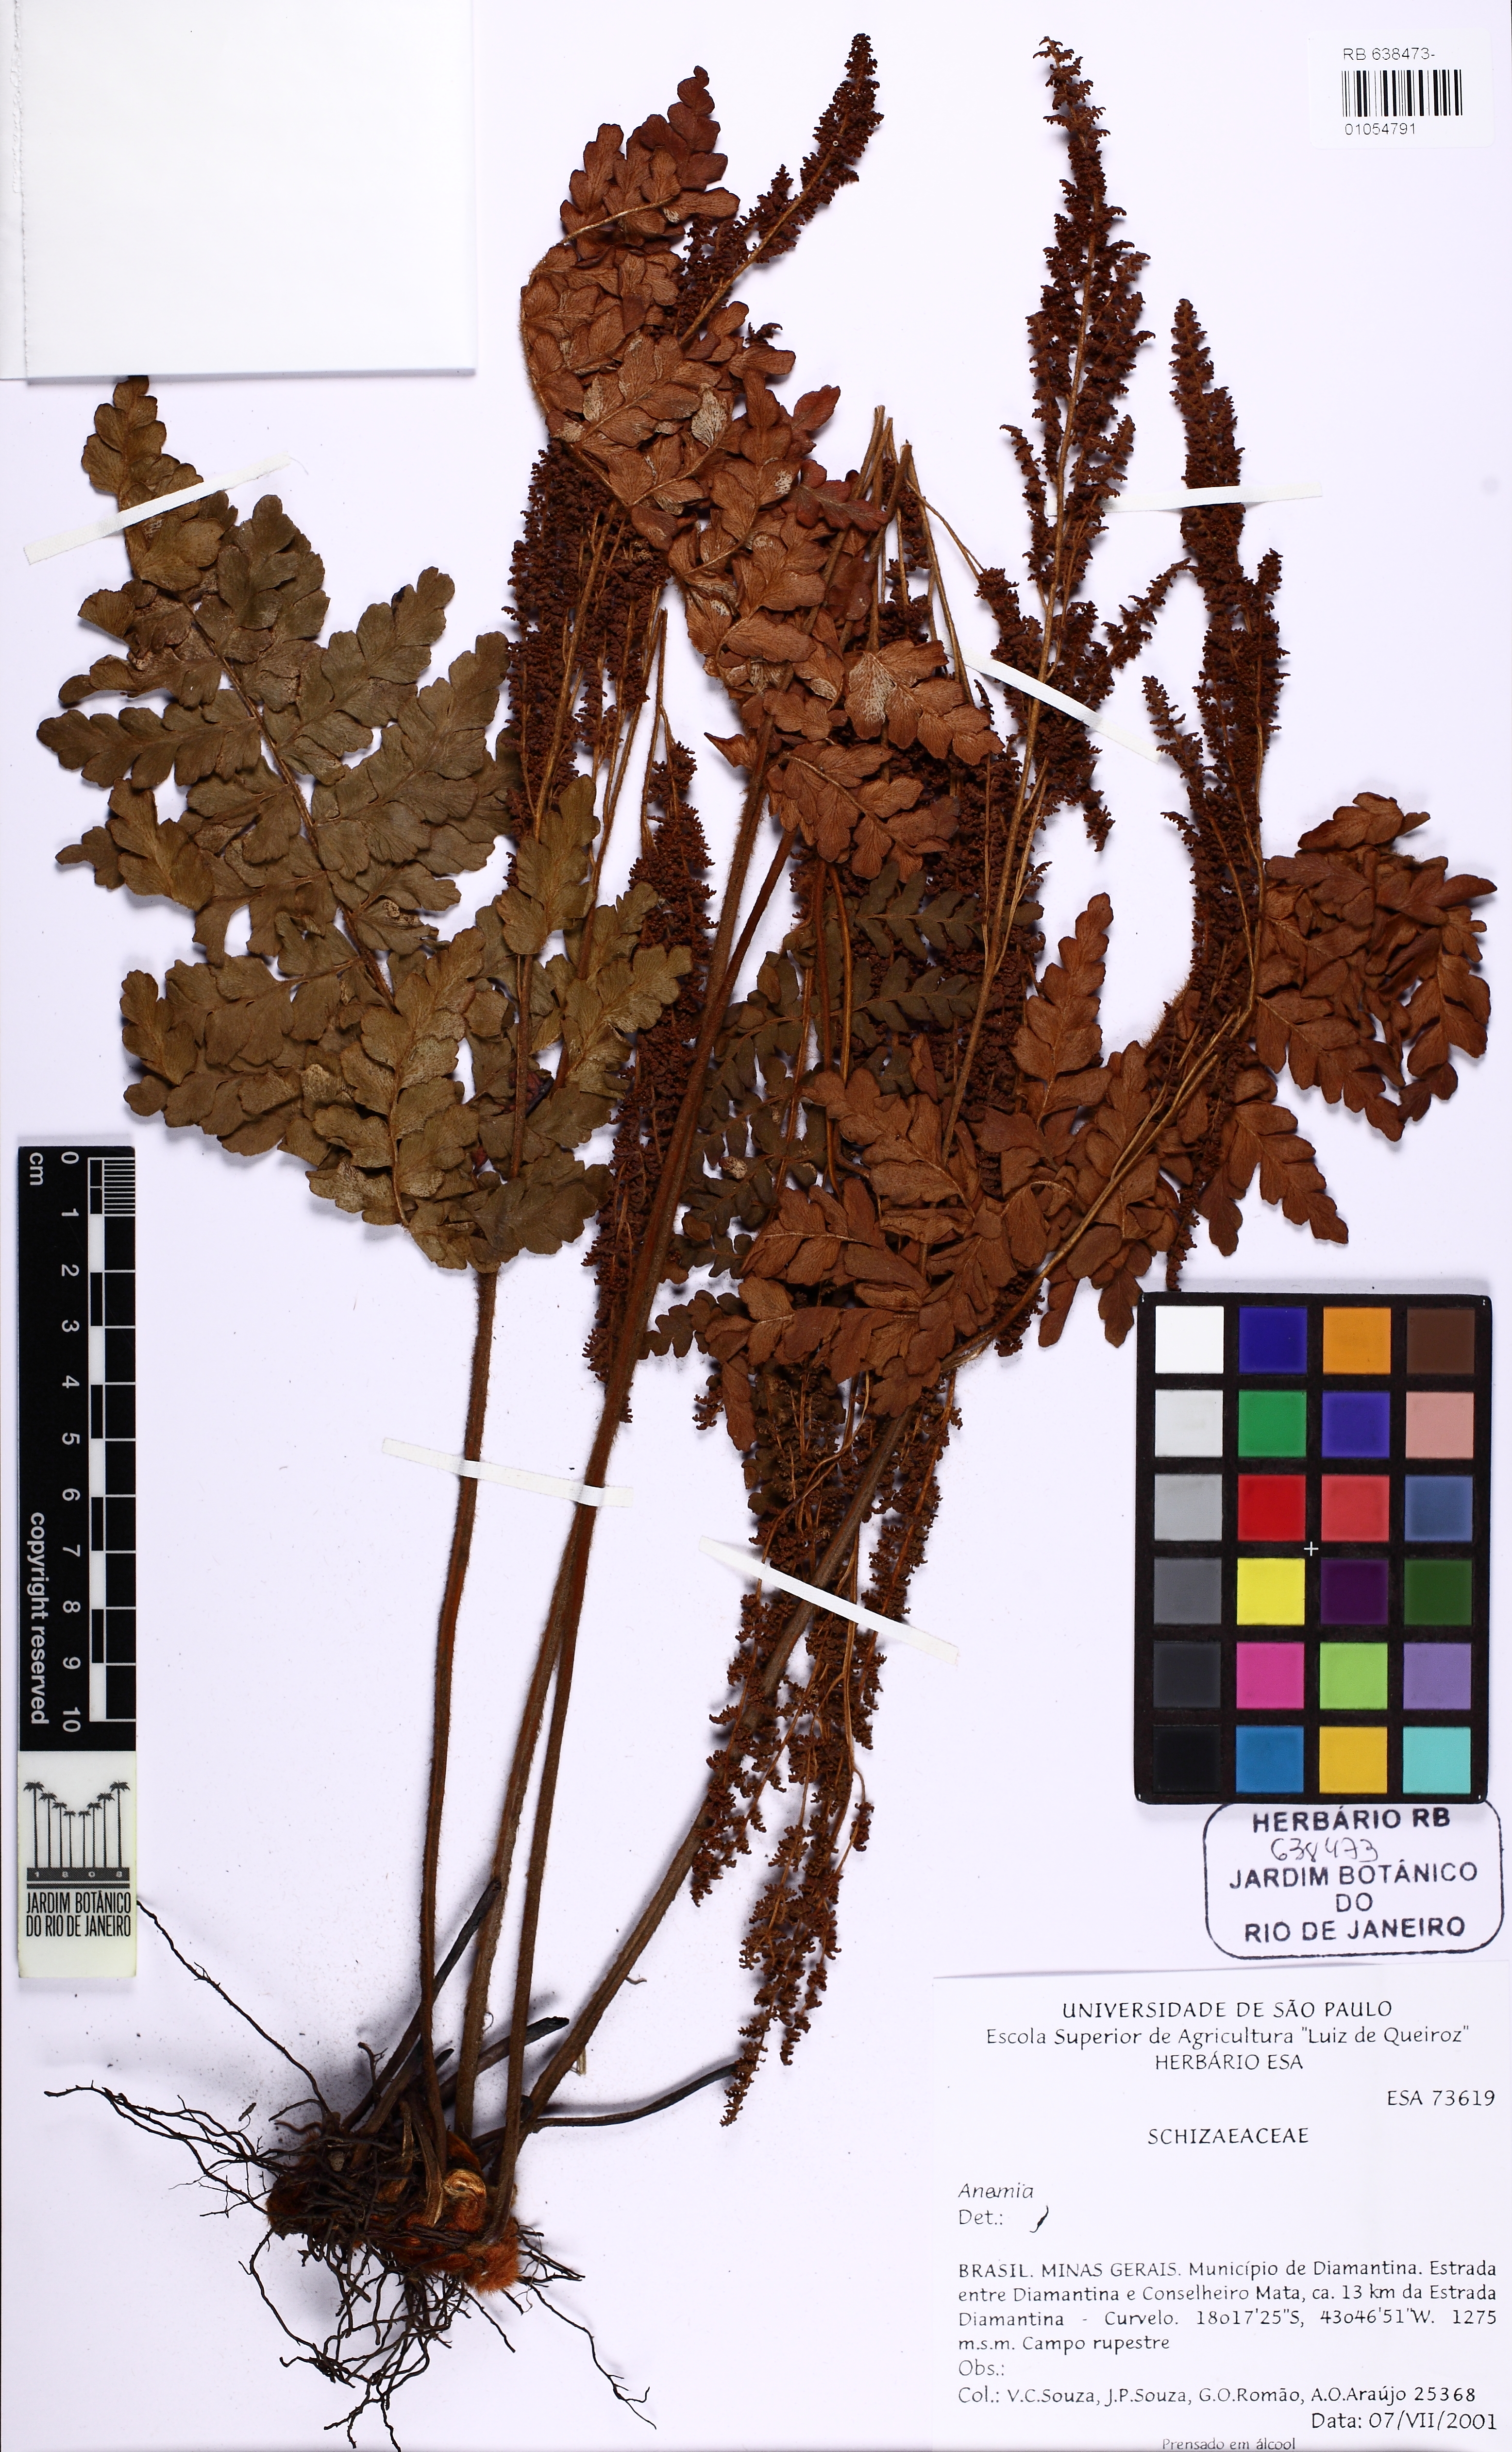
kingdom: Plantae
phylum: Tracheophyta
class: Polypodiopsida
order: Schizaeales
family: Anemiaceae
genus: Anemia
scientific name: Anemia imbricata
